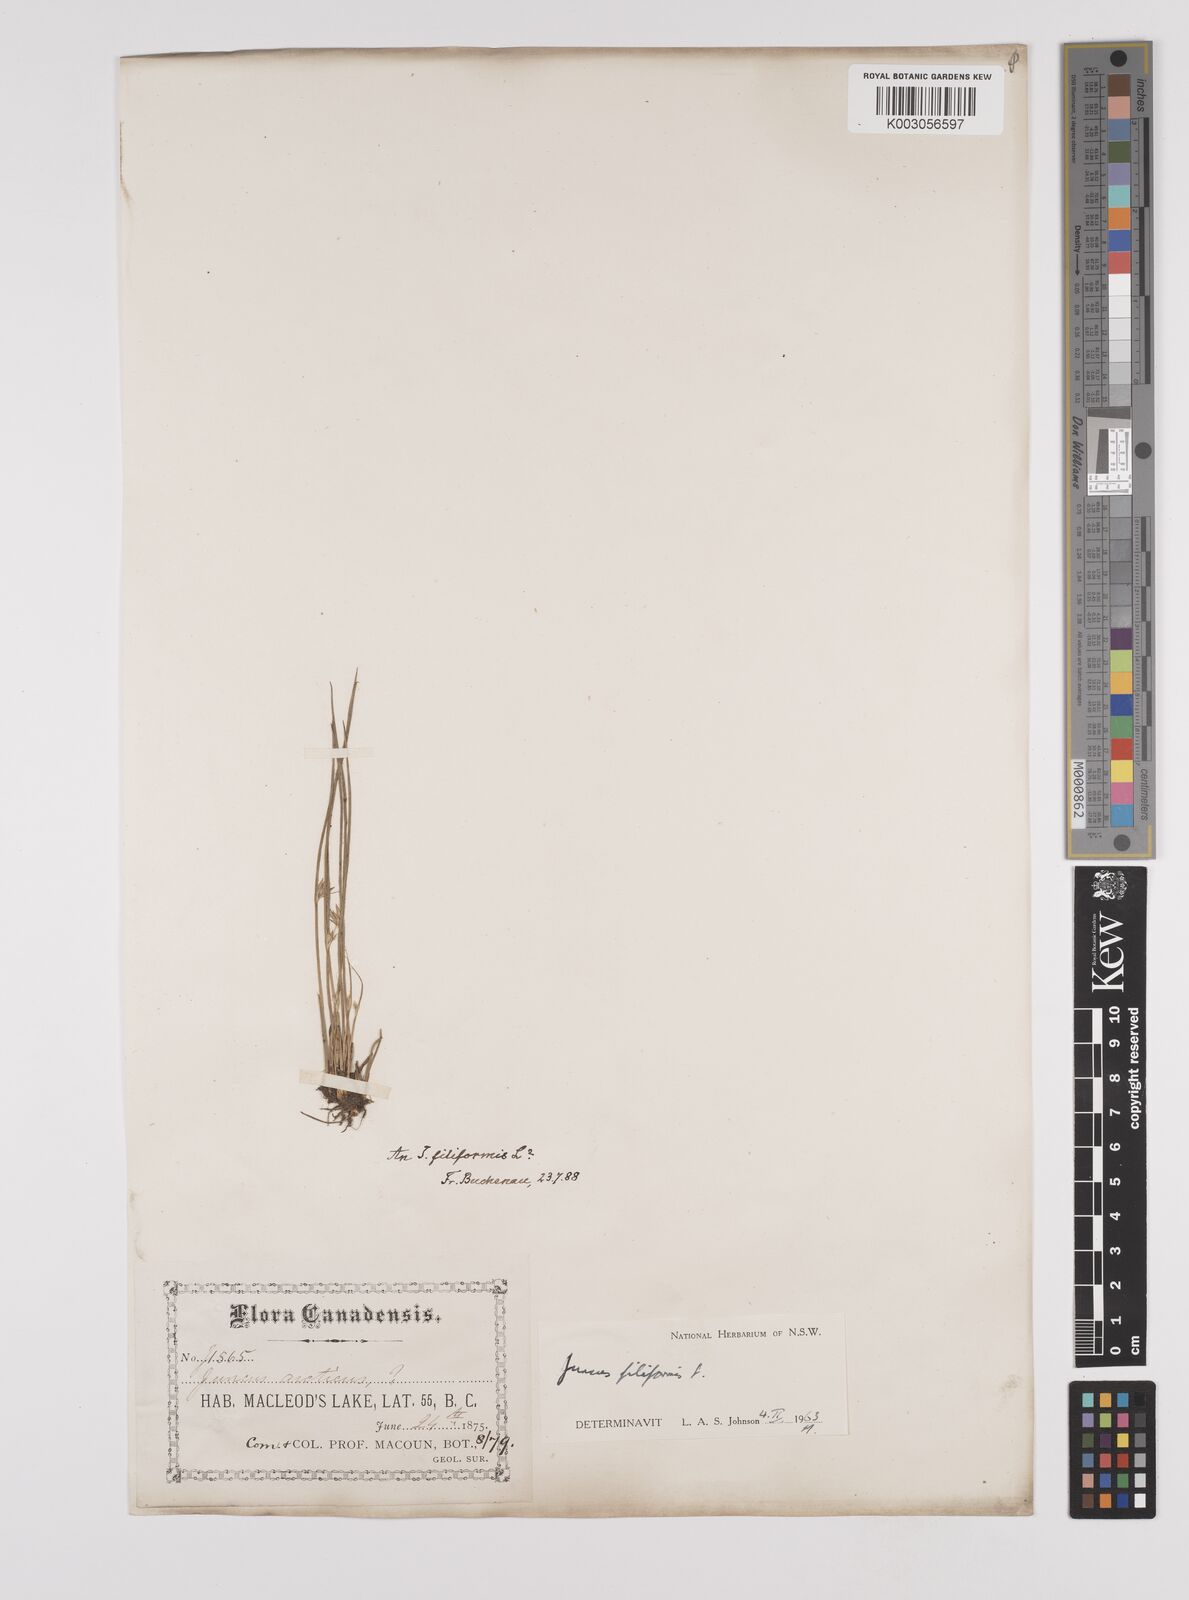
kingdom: Plantae
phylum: Tracheophyta
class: Liliopsida
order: Poales
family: Juncaceae
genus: Juncus
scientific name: Juncus filiformis
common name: Thread rush
